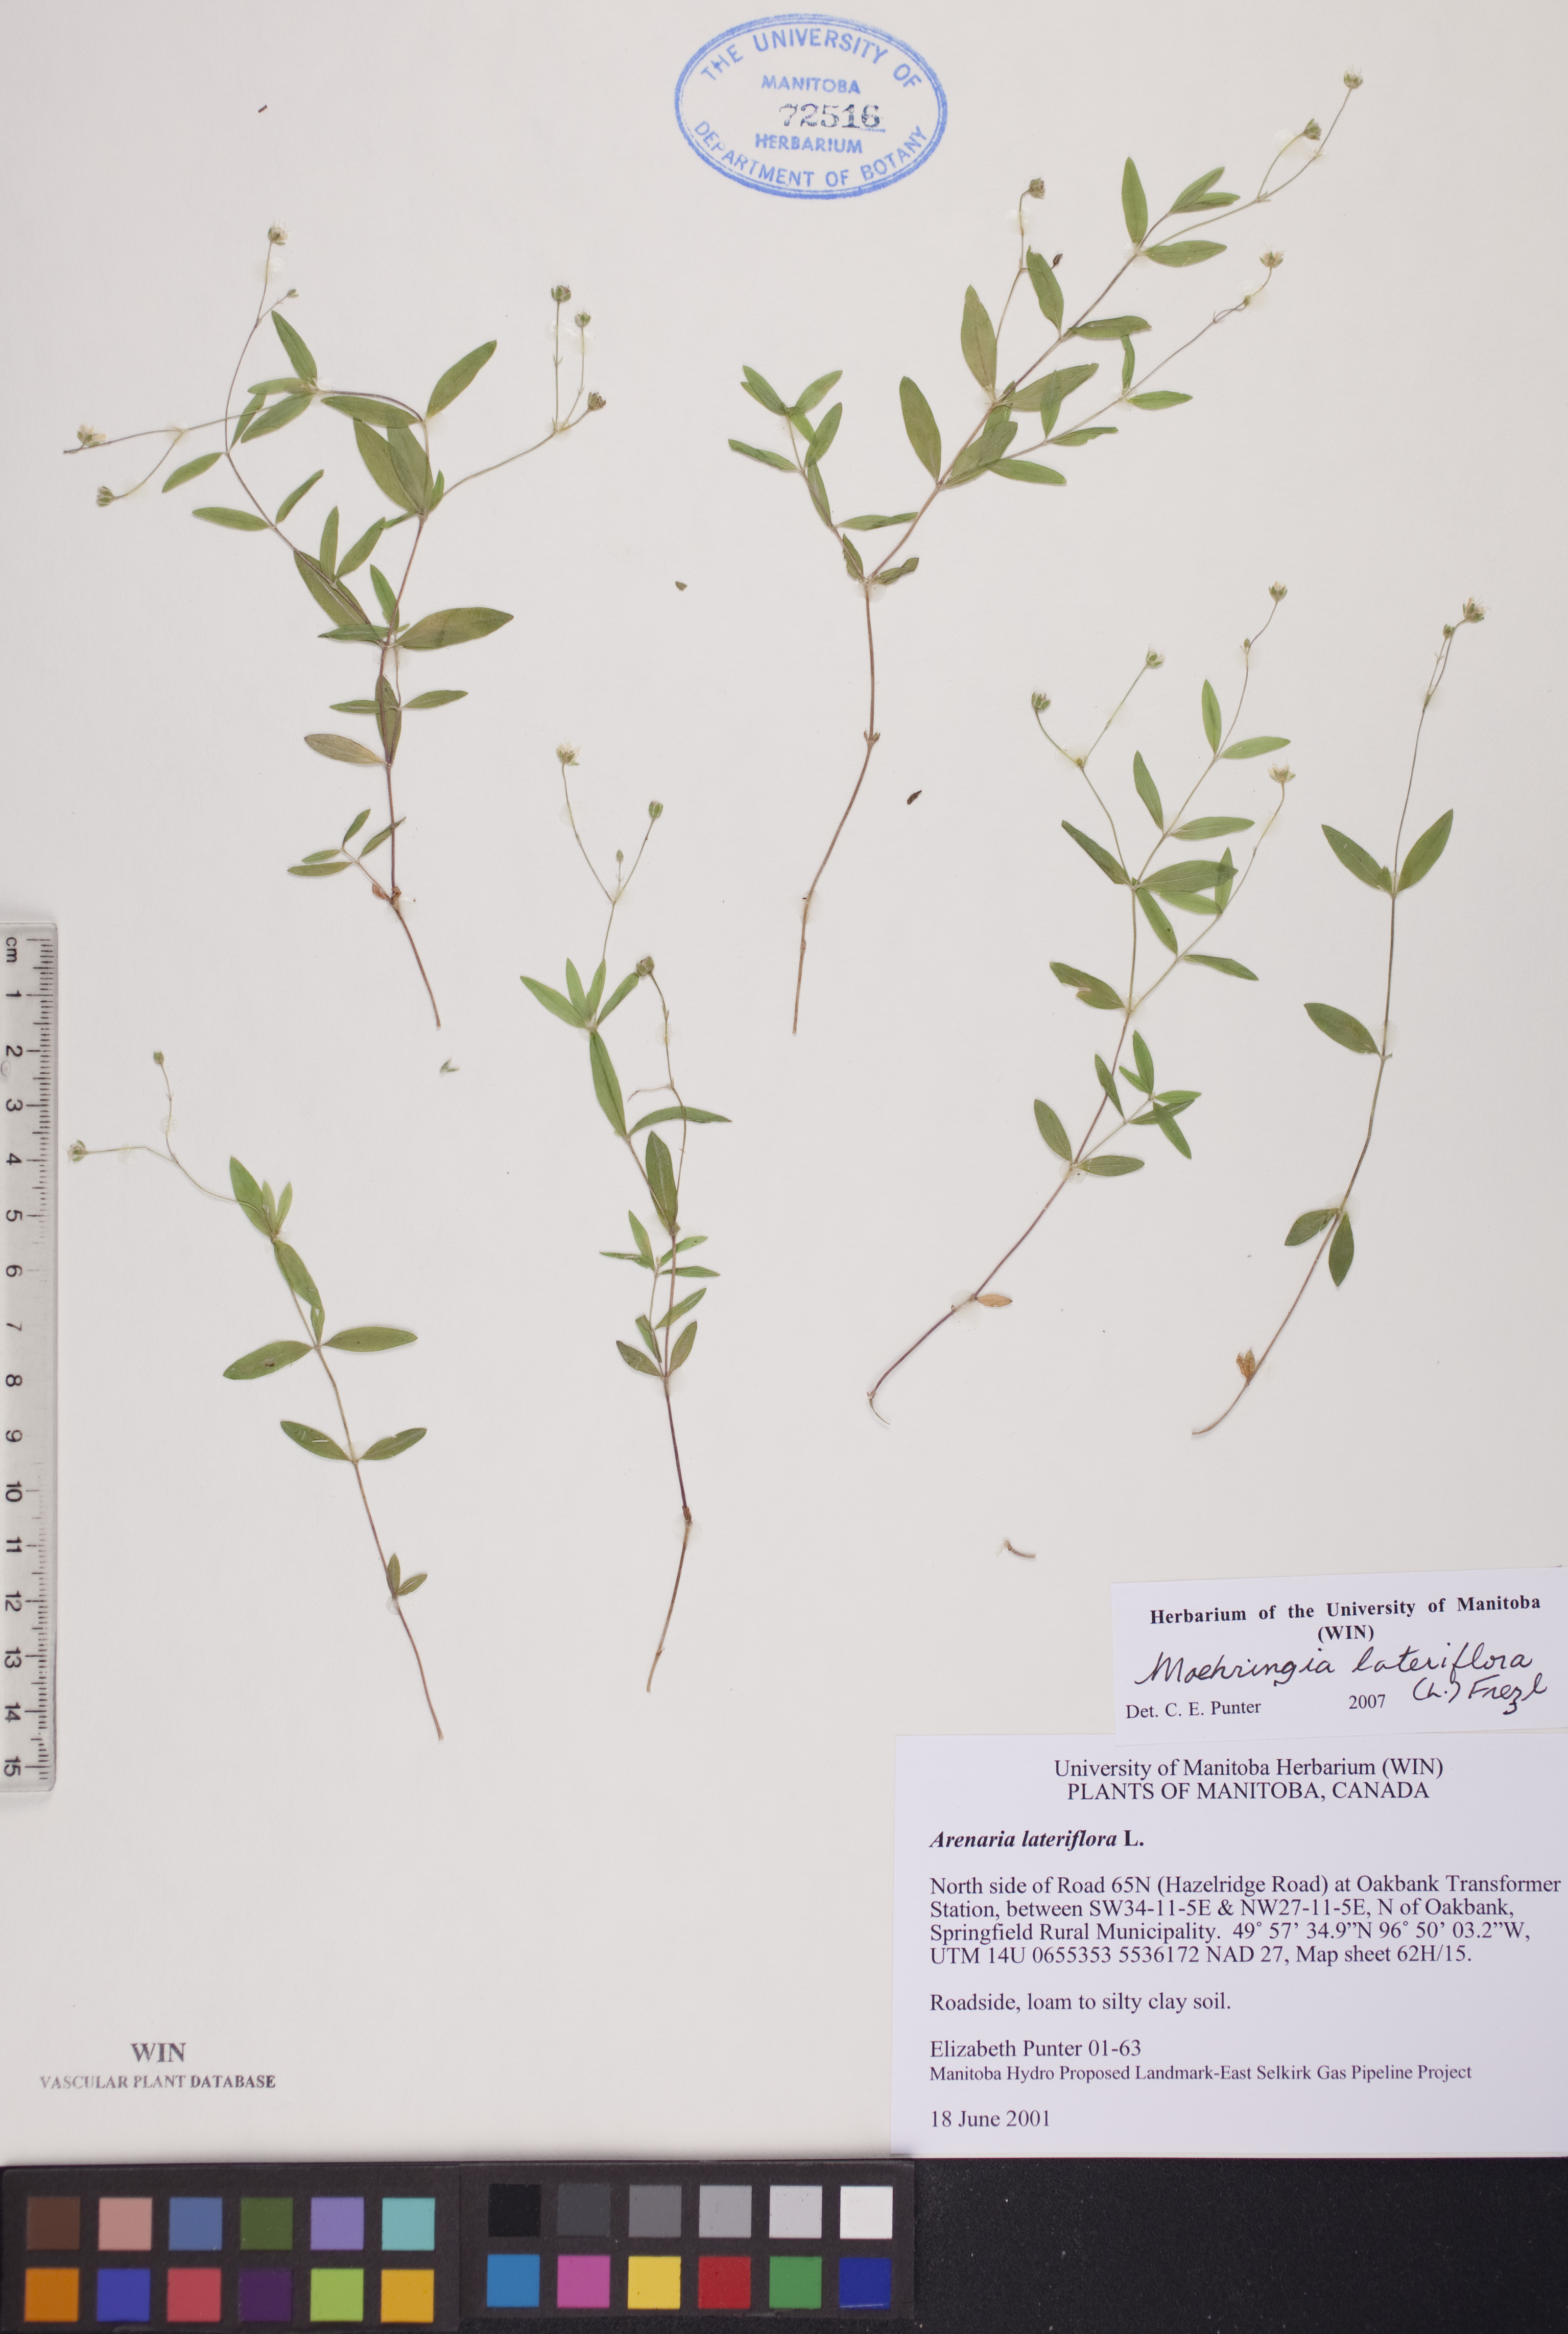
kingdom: Plantae
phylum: Tracheophyta
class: Magnoliopsida
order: Caryophyllales
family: Caryophyllaceae
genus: Moehringia
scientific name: Moehringia lateriflora
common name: Blunt-leaved sandwort
